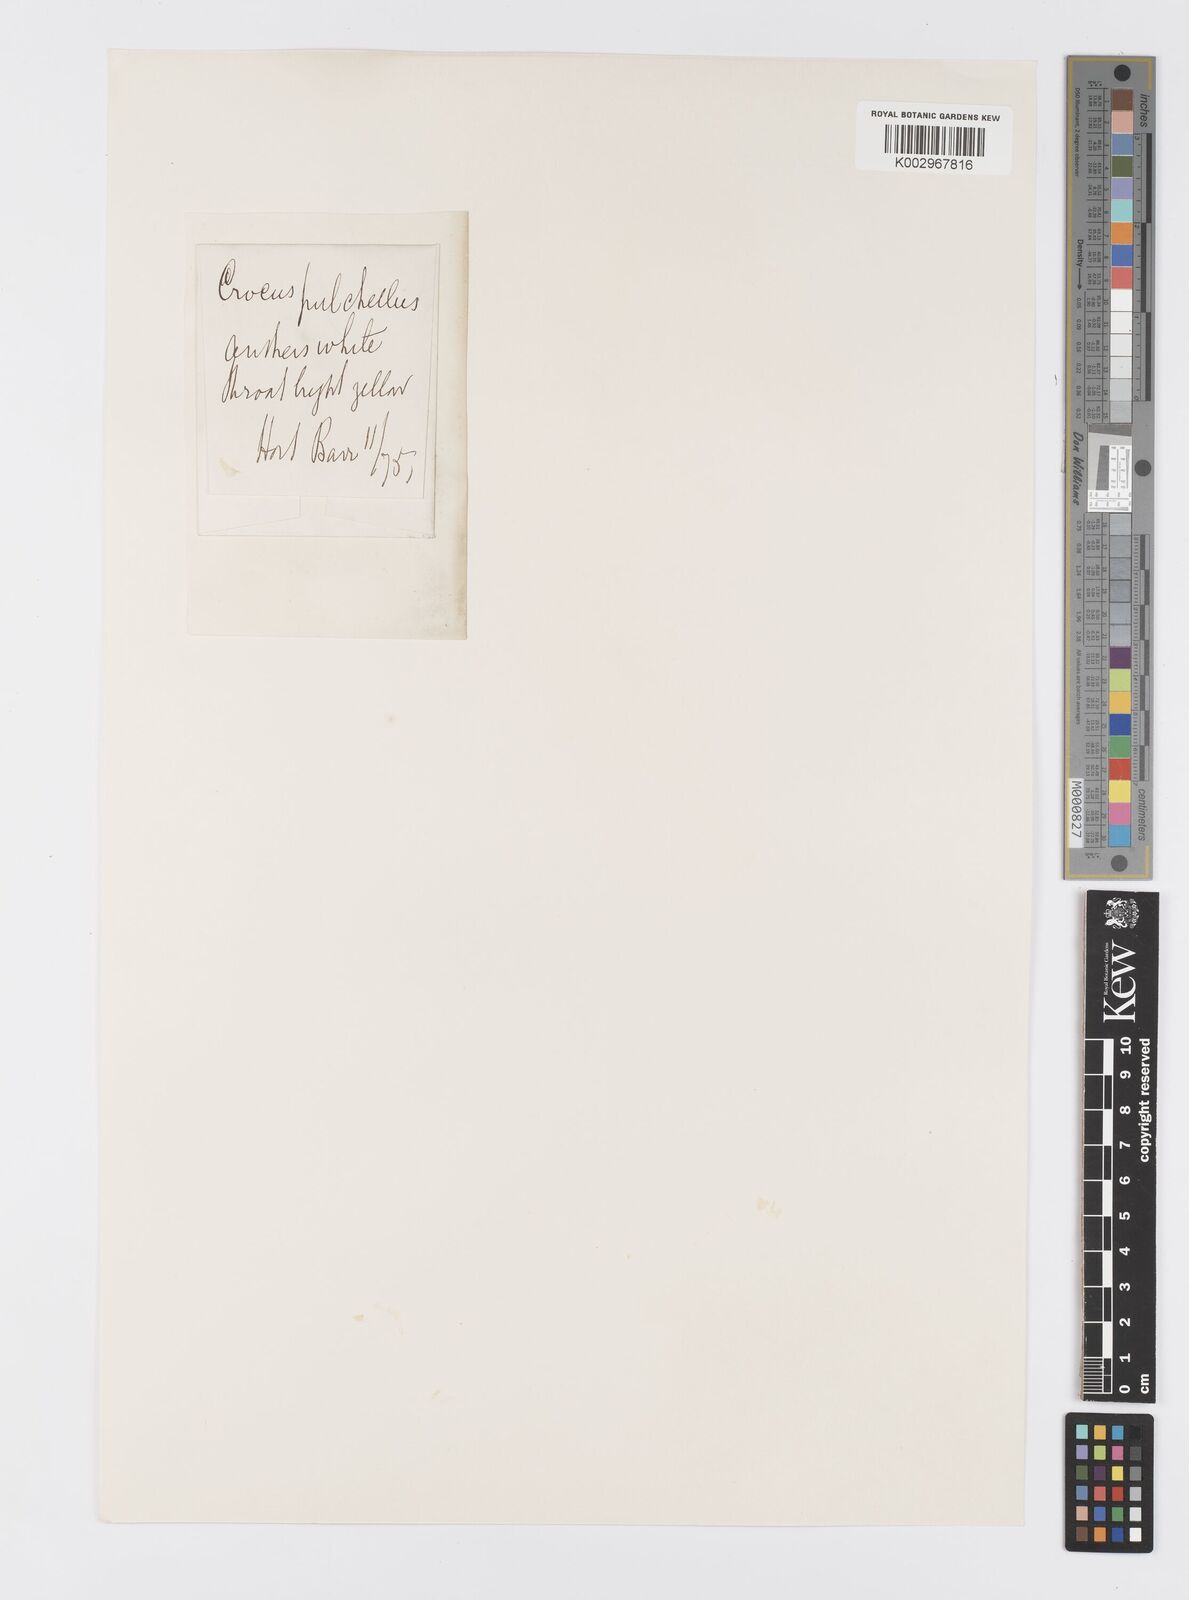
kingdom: Plantae
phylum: Tracheophyta
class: Liliopsida
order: Asparagales
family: Iridaceae
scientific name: Iridaceae
